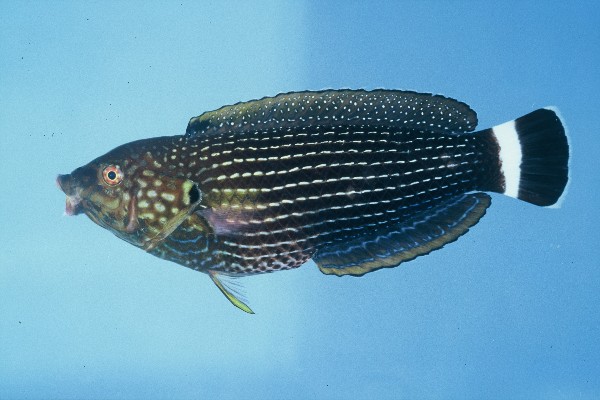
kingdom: Animalia
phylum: Chordata
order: Perciformes
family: Labridae
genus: Anampses
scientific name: Anampses lineatus
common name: Lined wrasse
